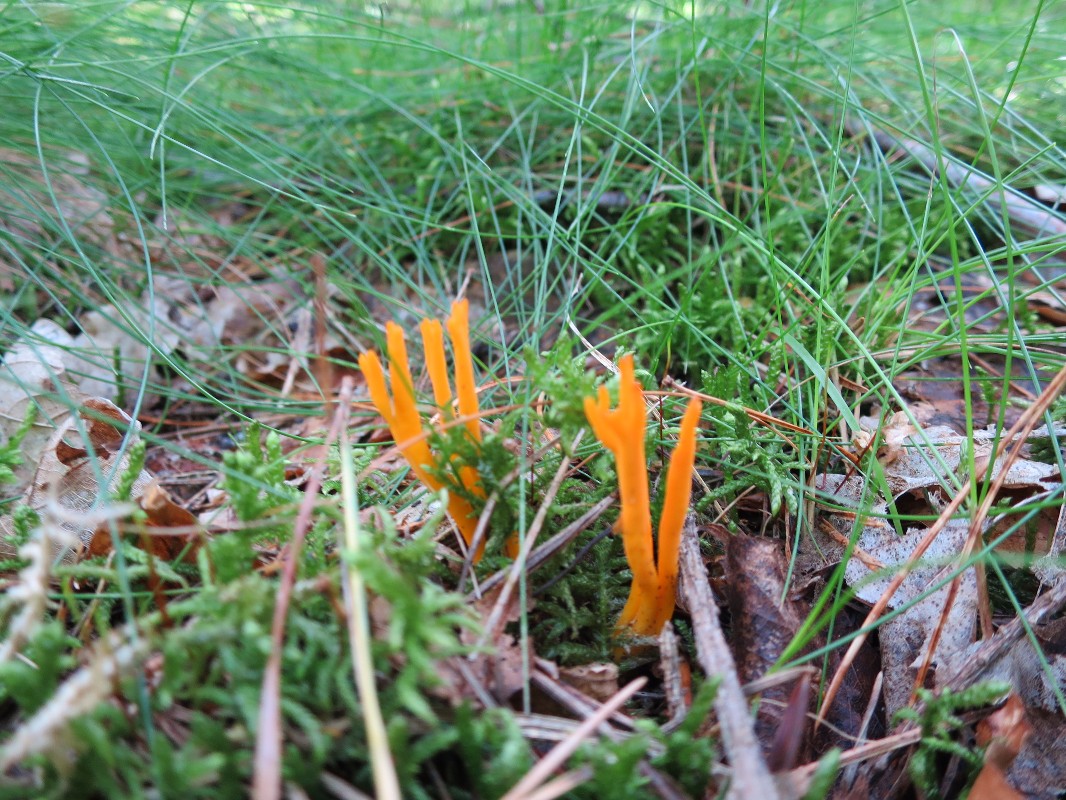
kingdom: Fungi
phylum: Basidiomycota
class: Dacrymycetes
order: Dacrymycetales
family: Dacrymycetaceae
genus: Calocera
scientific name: Calocera viscosa
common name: almindelig guldgaffel
